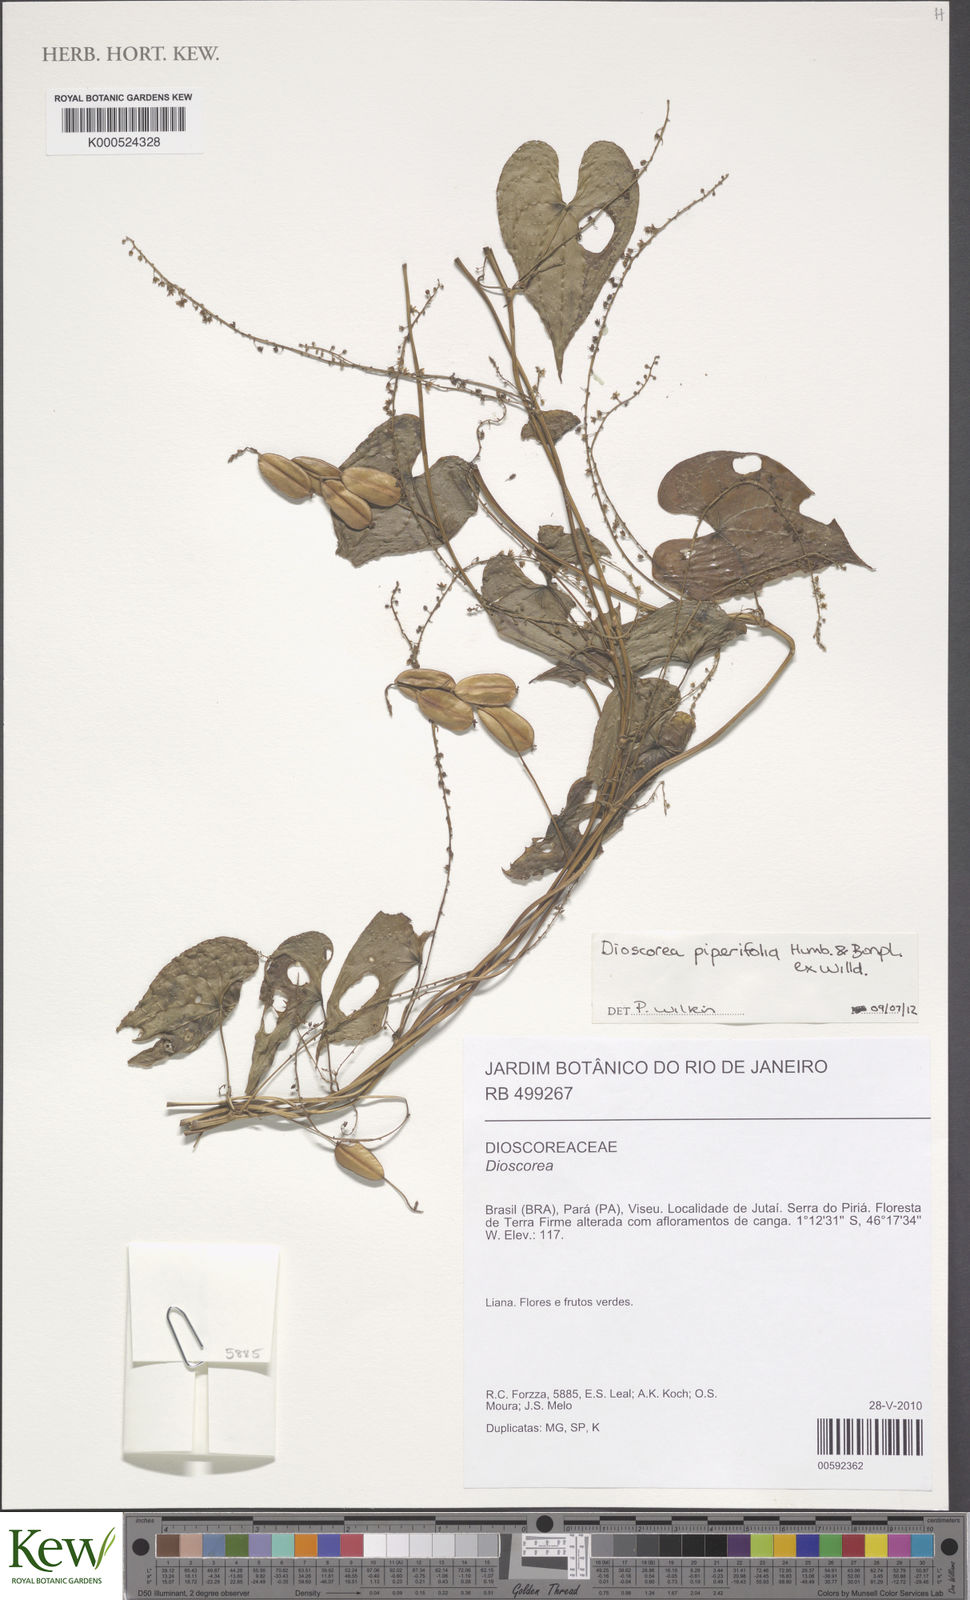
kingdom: Plantae
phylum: Tracheophyta
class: Liliopsida
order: Dioscoreales
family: Dioscoreaceae
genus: Dioscorea
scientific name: Dioscorea piperifolia
